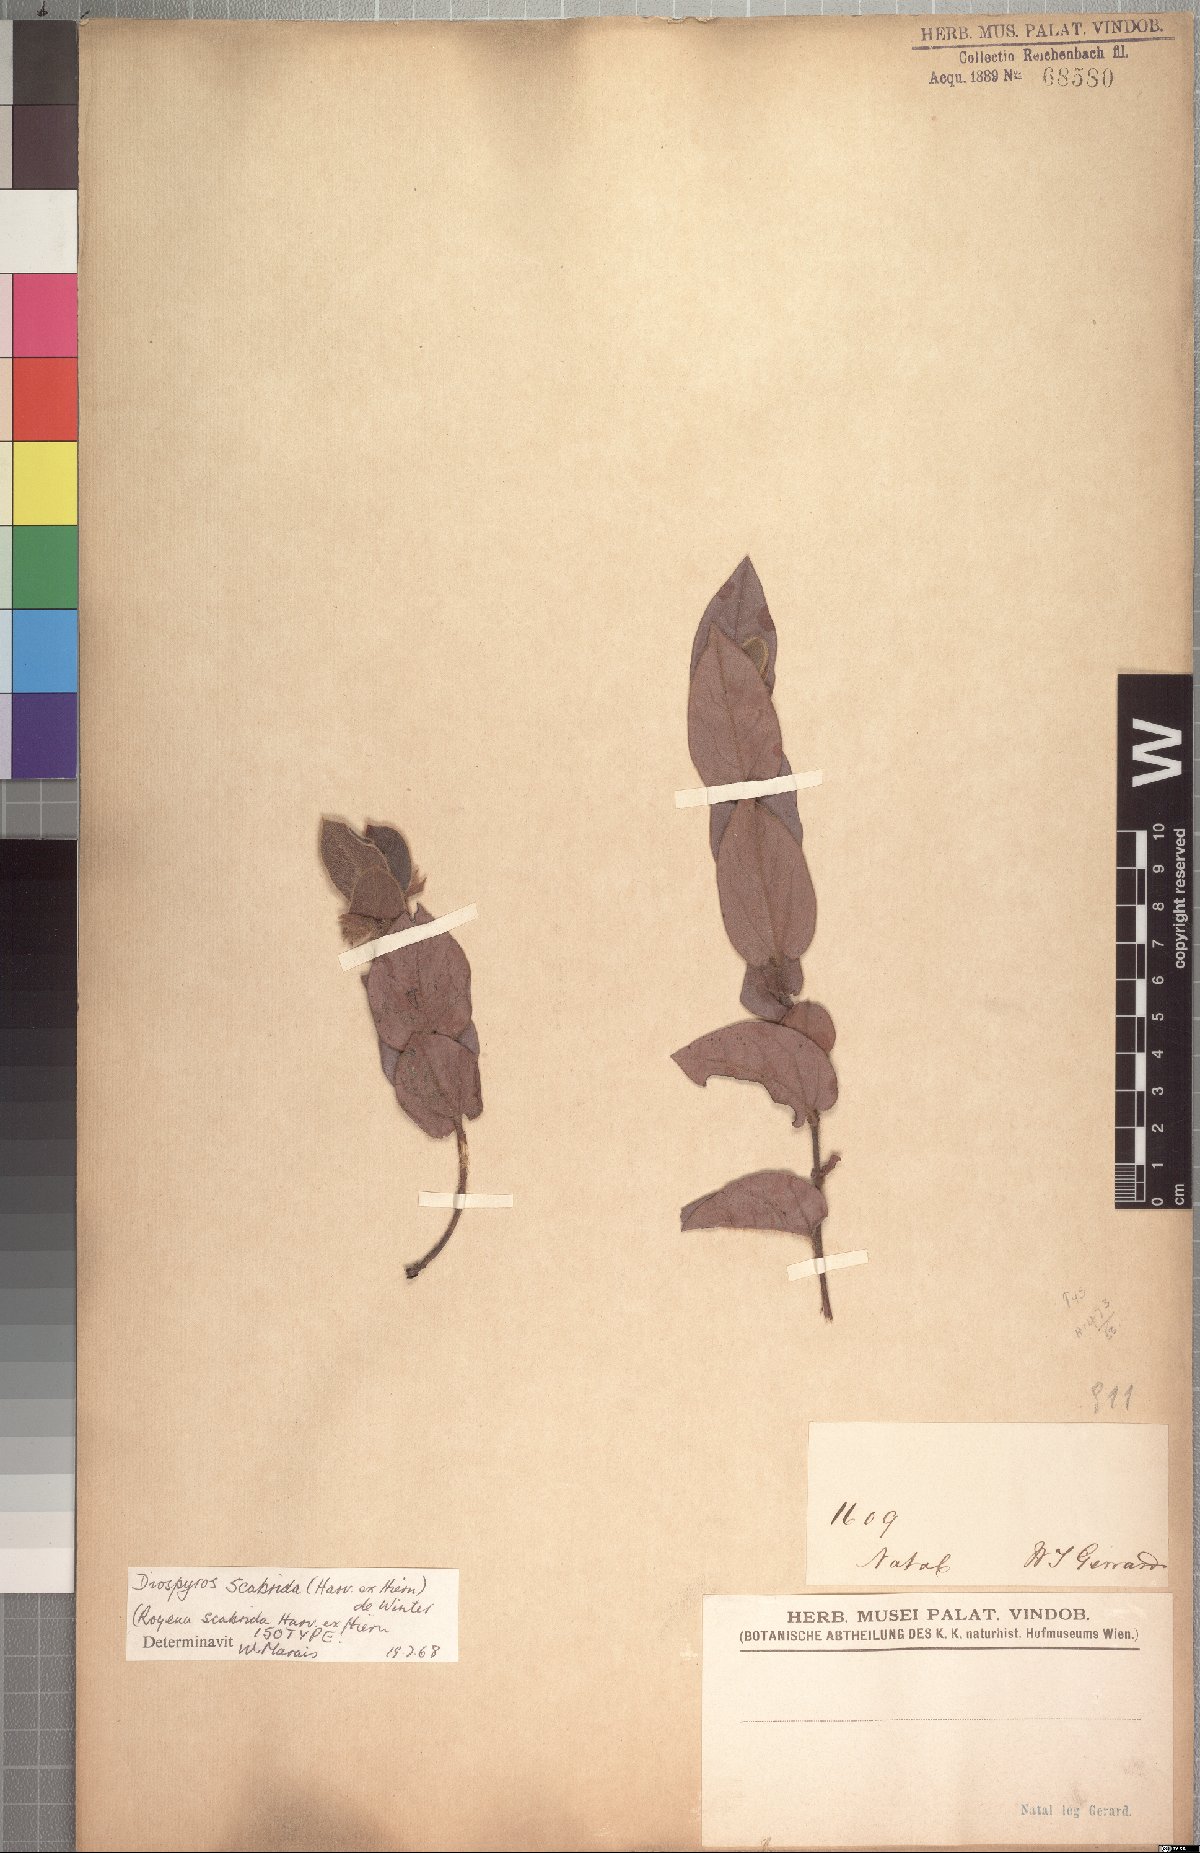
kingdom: Plantae
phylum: Tracheophyta
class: Magnoliopsida
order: Ericales
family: Ebenaceae
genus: Diospyros
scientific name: Diospyros scabrida
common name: Coastal bladder-nut
